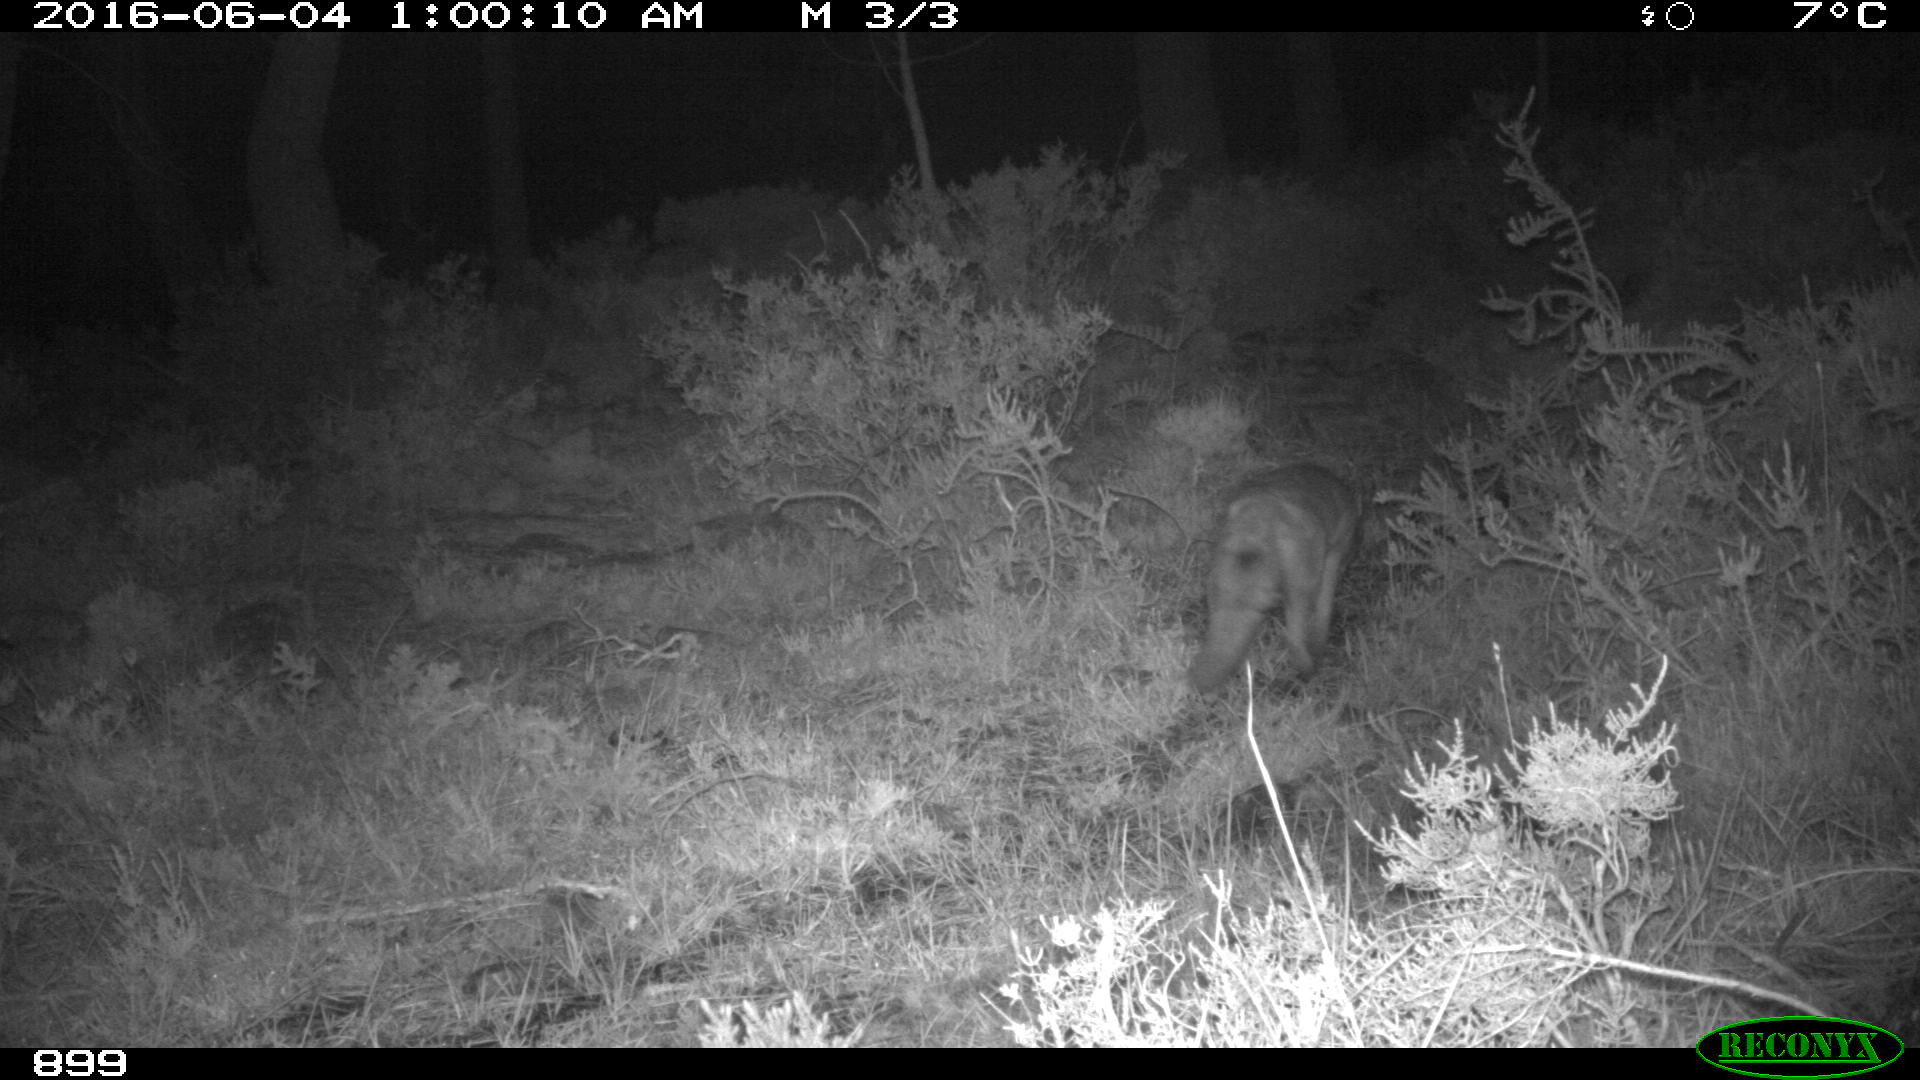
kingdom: Animalia
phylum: Chordata
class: Mammalia
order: Carnivora
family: Canidae
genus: Vulpes
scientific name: Vulpes vulpes
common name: Red fox
